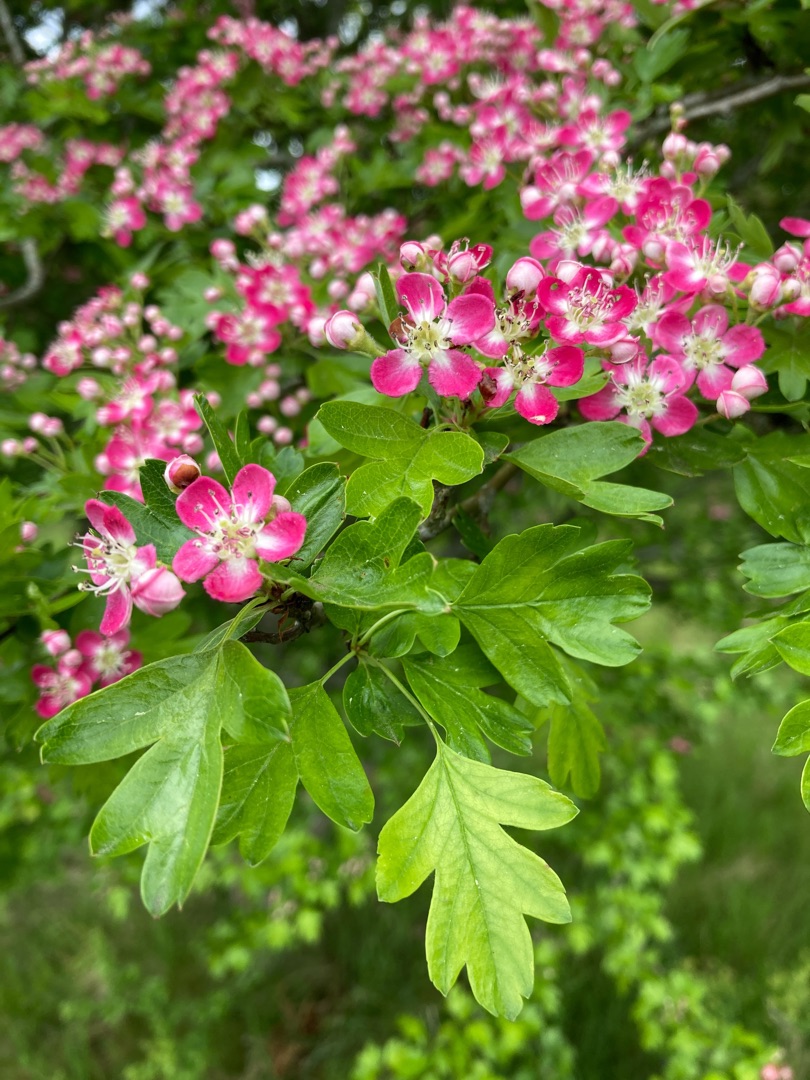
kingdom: Plantae
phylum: Tracheophyta
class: Magnoliopsida
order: Rosales
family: Rosaceae
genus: Crataegus
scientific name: Crataegus monogyna
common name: Engriflet hvidtjørn
